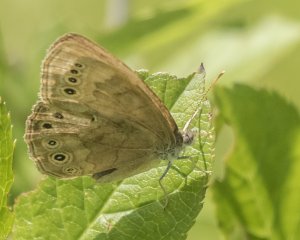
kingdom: Animalia
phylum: Arthropoda
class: Insecta
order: Lepidoptera
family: Nymphalidae
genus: Lethe
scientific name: Lethe eurydice
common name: Eyed Brown
